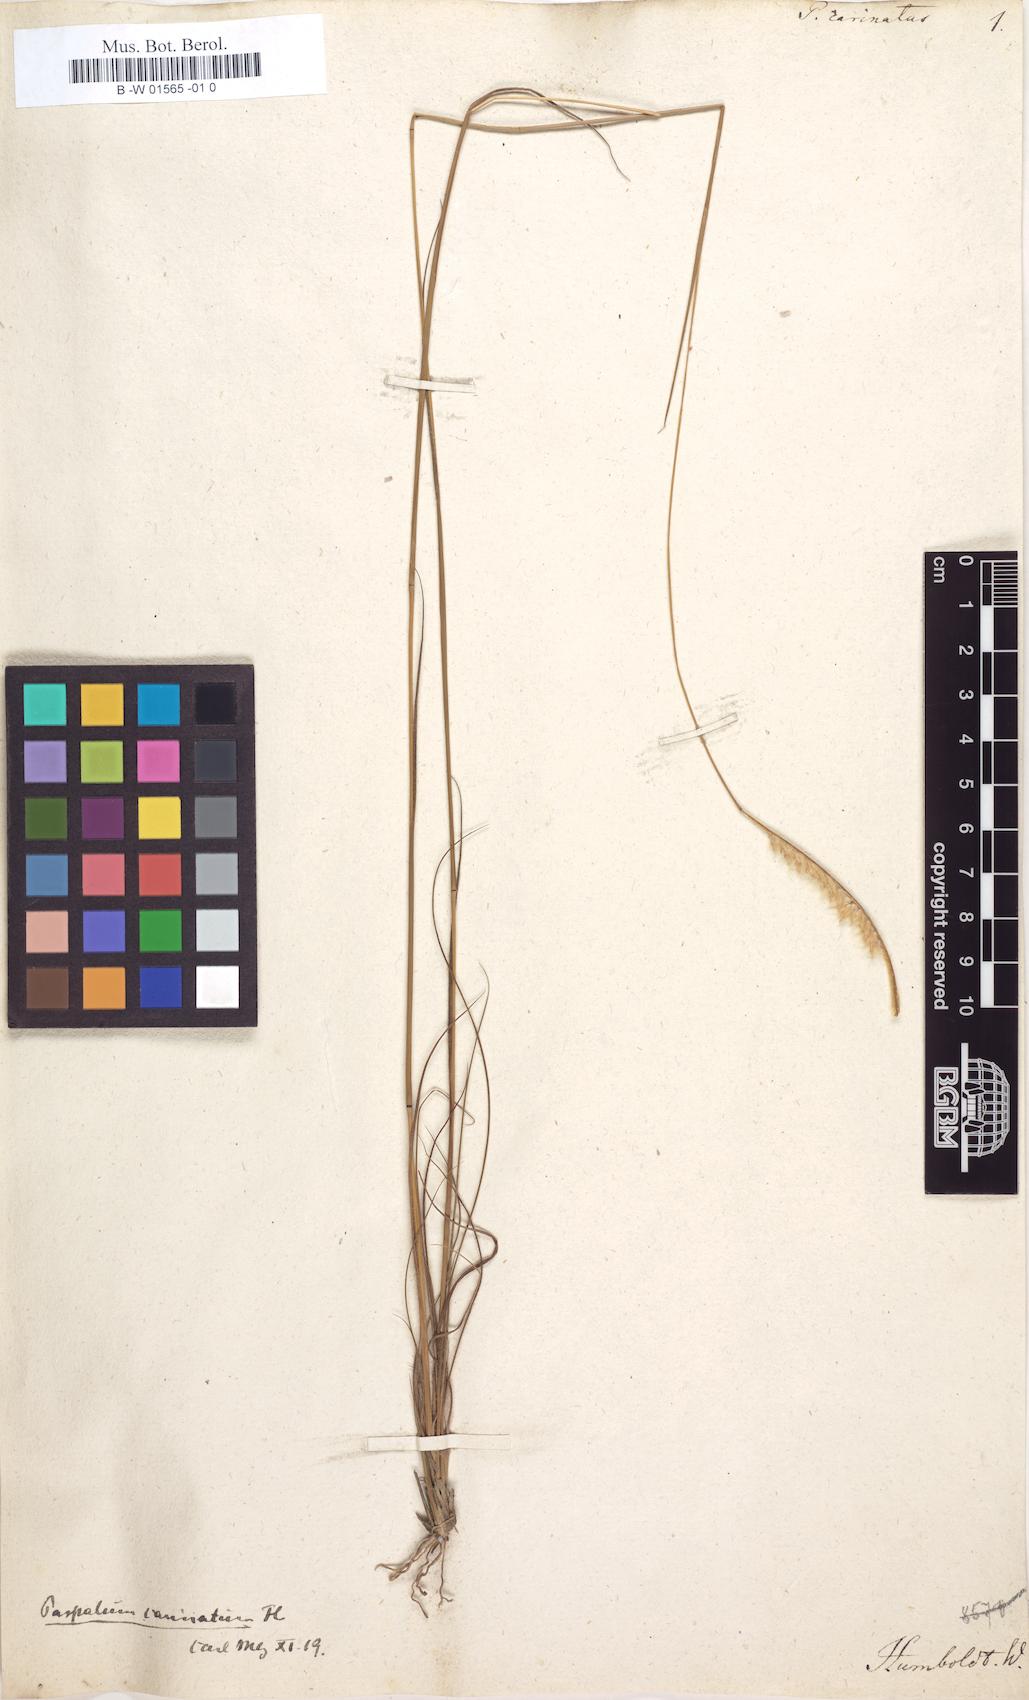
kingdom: Plantae
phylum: Tracheophyta
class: Liliopsida
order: Poales
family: Poaceae
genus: Paspalum
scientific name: Paspalum carinatum
